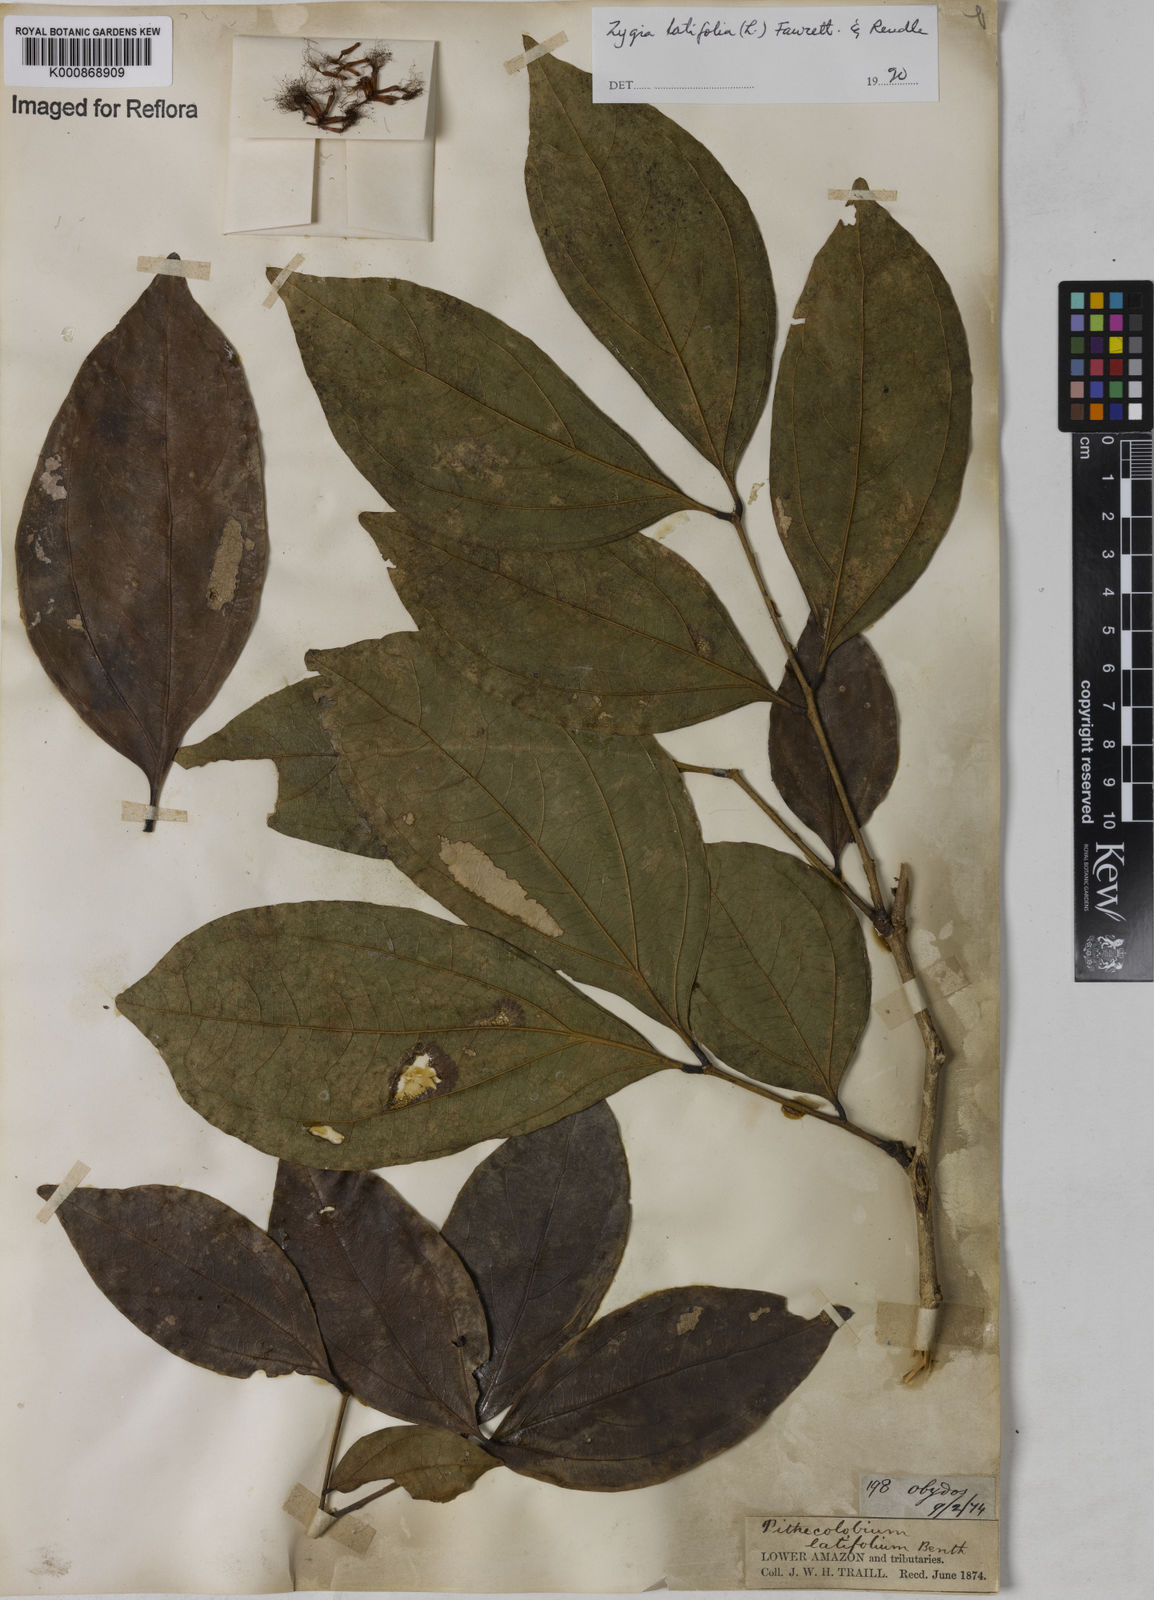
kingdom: Plantae
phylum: Tracheophyta
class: Magnoliopsida
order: Fabales
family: Fabaceae
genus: Zygia
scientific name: Zygia latifolia
